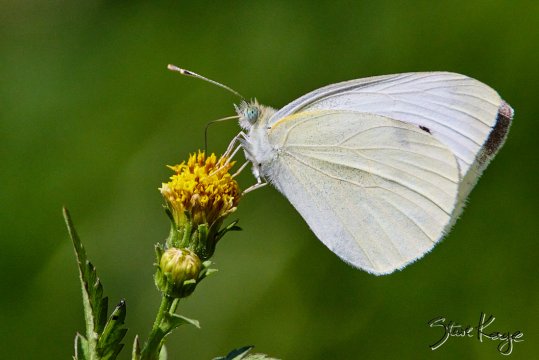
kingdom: Animalia
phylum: Arthropoda
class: Insecta
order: Lepidoptera
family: Pieridae
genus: Pieris
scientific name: Pieris rapae
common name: Cabbage White
